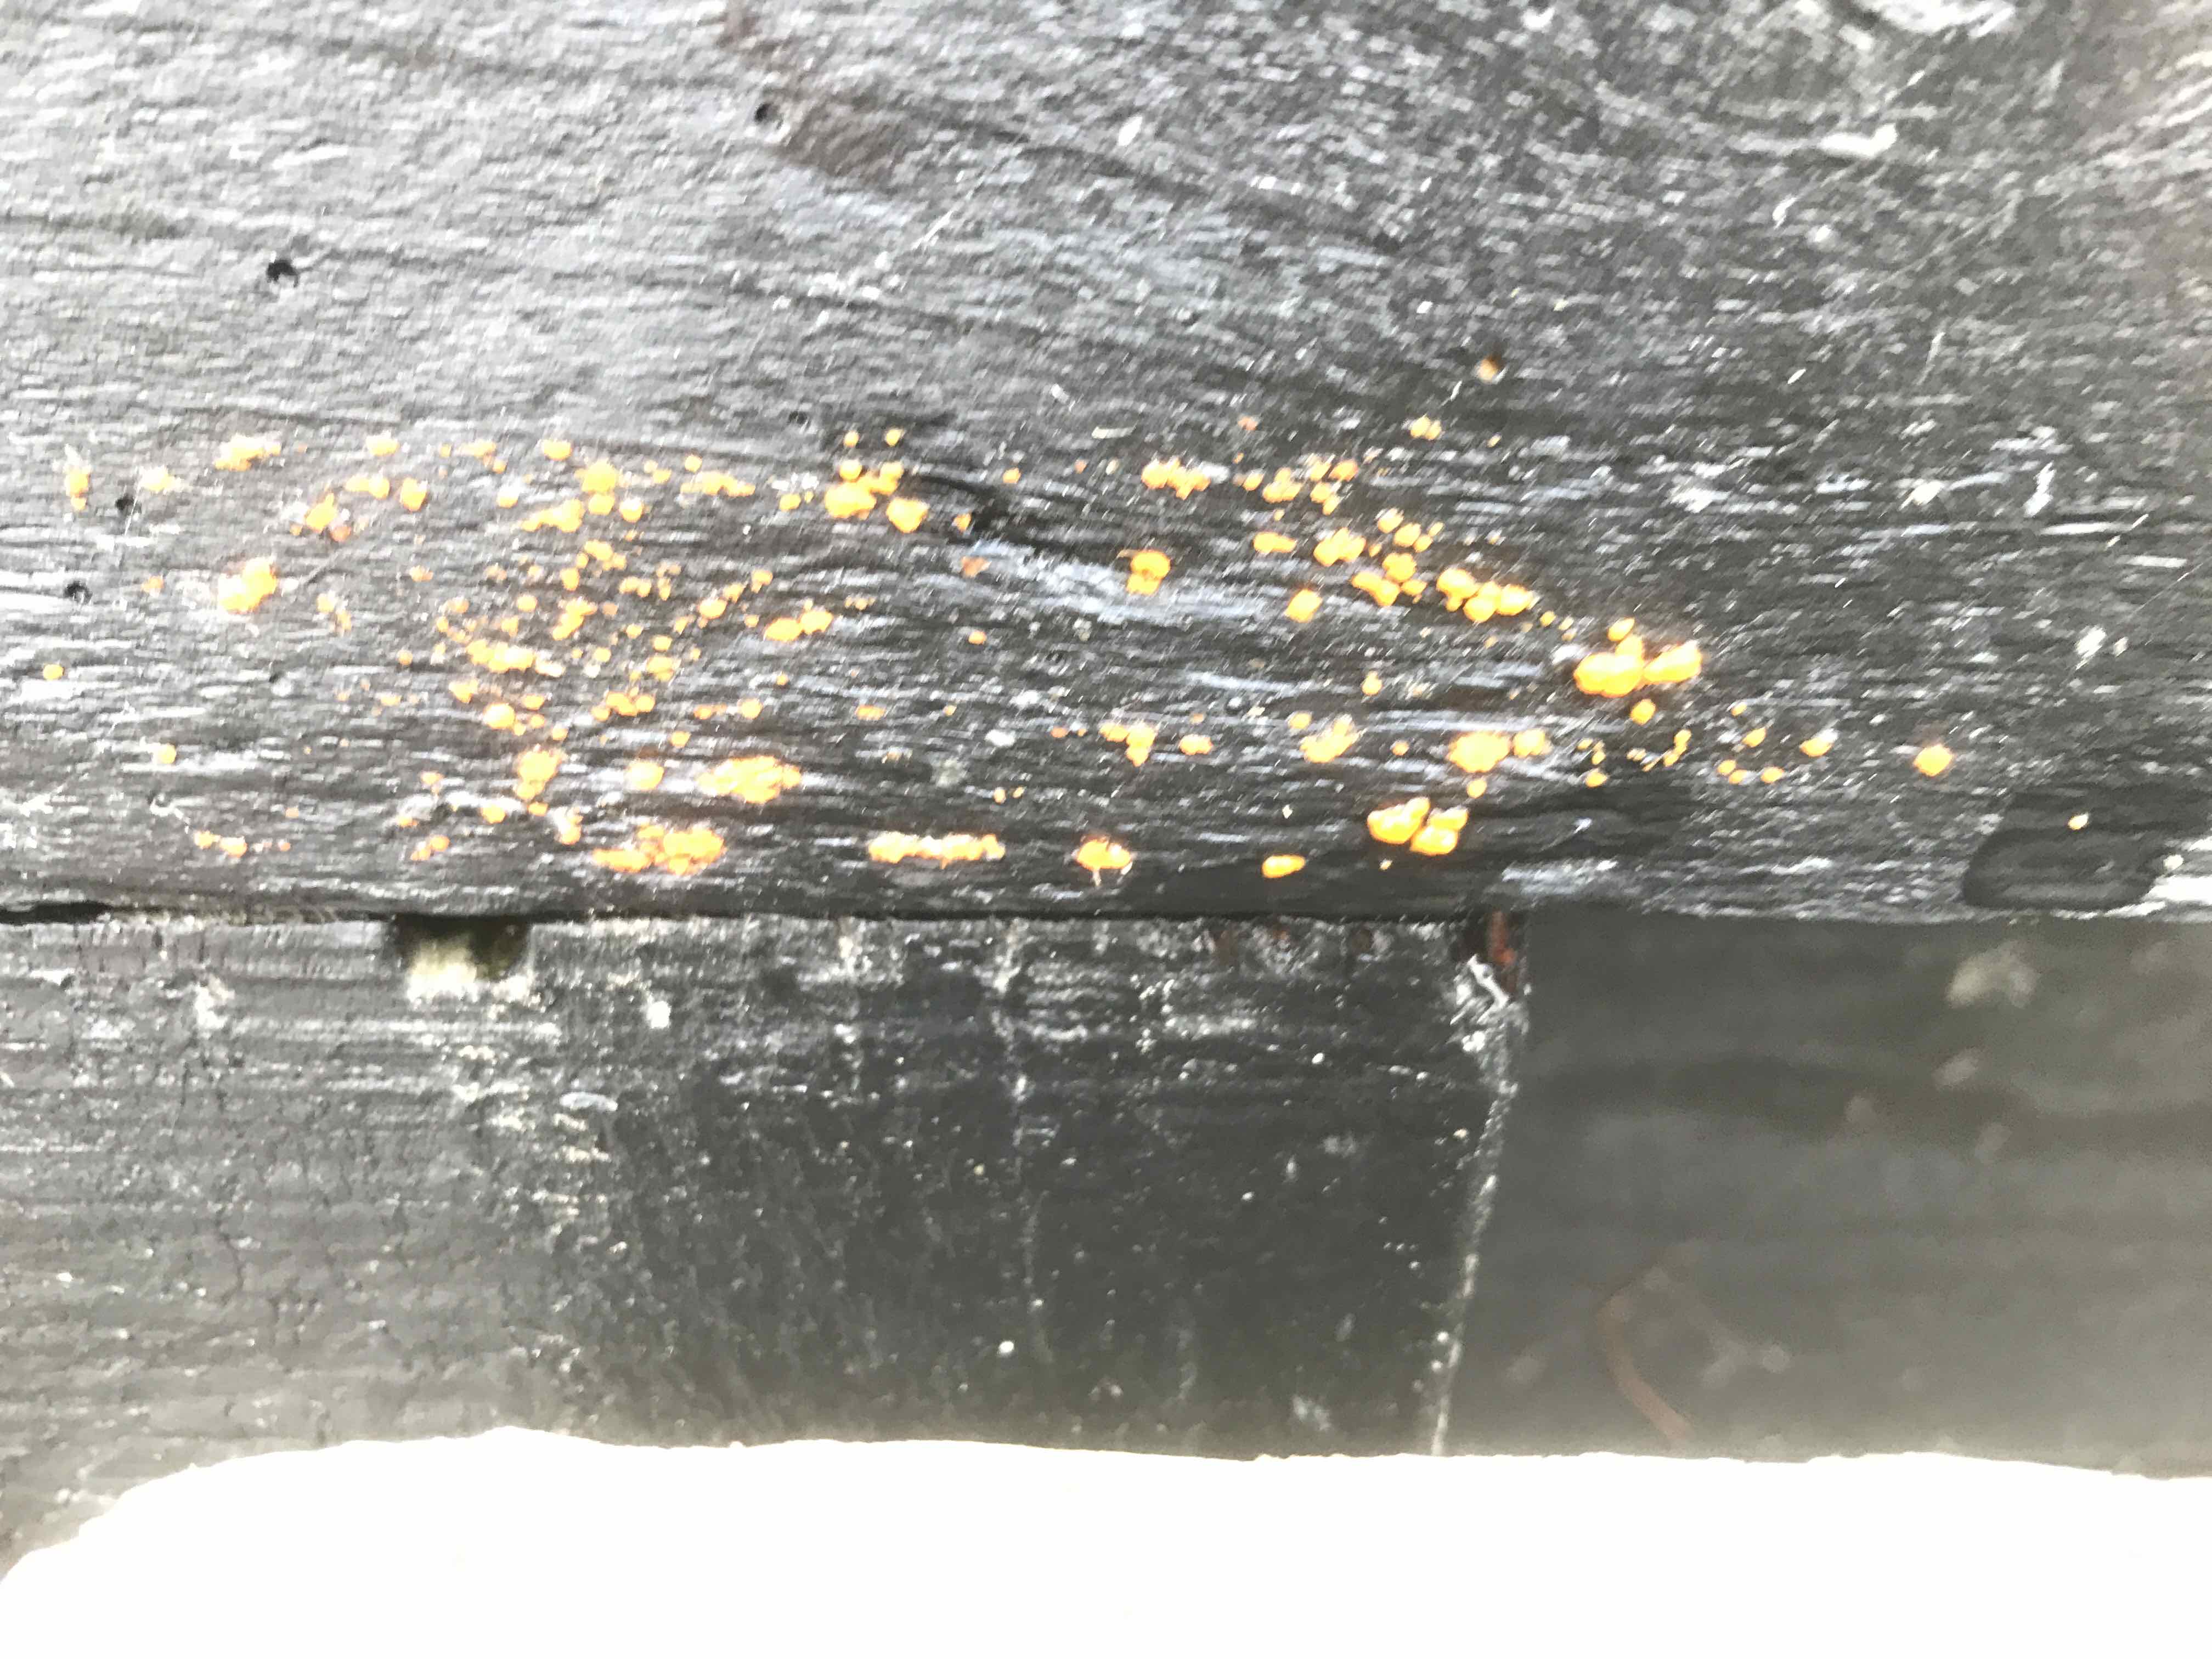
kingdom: Fungi
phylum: Basidiomycota
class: Dacrymycetes
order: Dacrymycetales
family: Dacrymycetaceae
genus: Dacrymyces
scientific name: Dacrymyces stillatus
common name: almindelig tåresvamp
